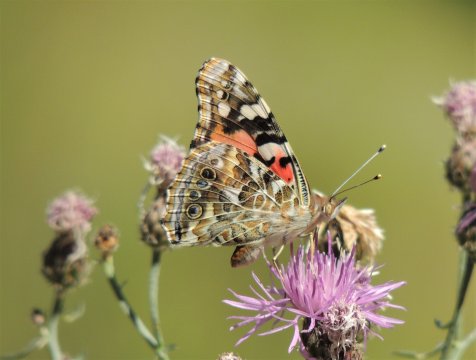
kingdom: Animalia
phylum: Arthropoda
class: Insecta
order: Lepidoptera
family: Nymphalidae
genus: Vanessa
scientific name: Vanessa cardui
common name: Painted Lady
